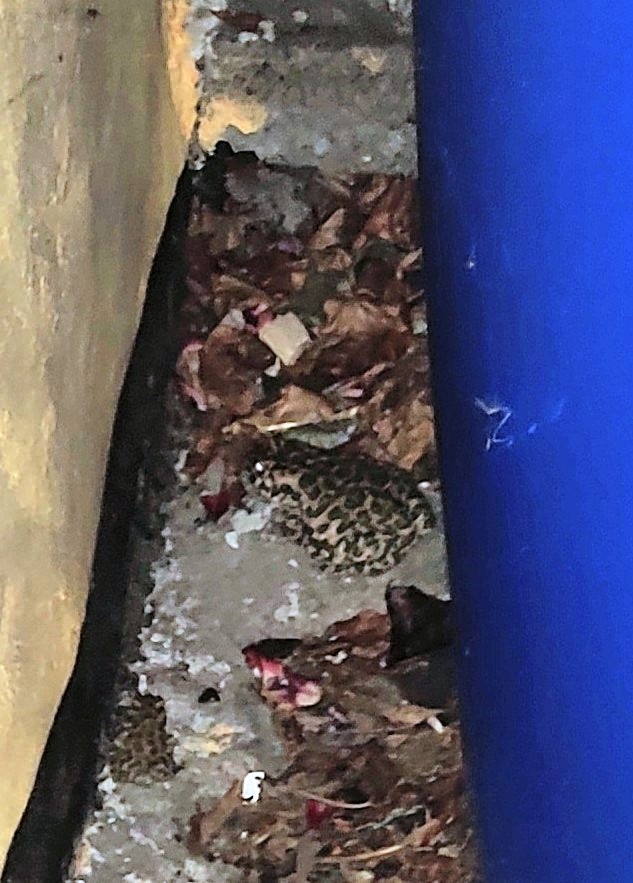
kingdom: Animalia
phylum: Chordata
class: Amphibia
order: Anura
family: Bufonidae
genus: Bufotes
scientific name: Bufotes viridis
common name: Grønbroget tudse
